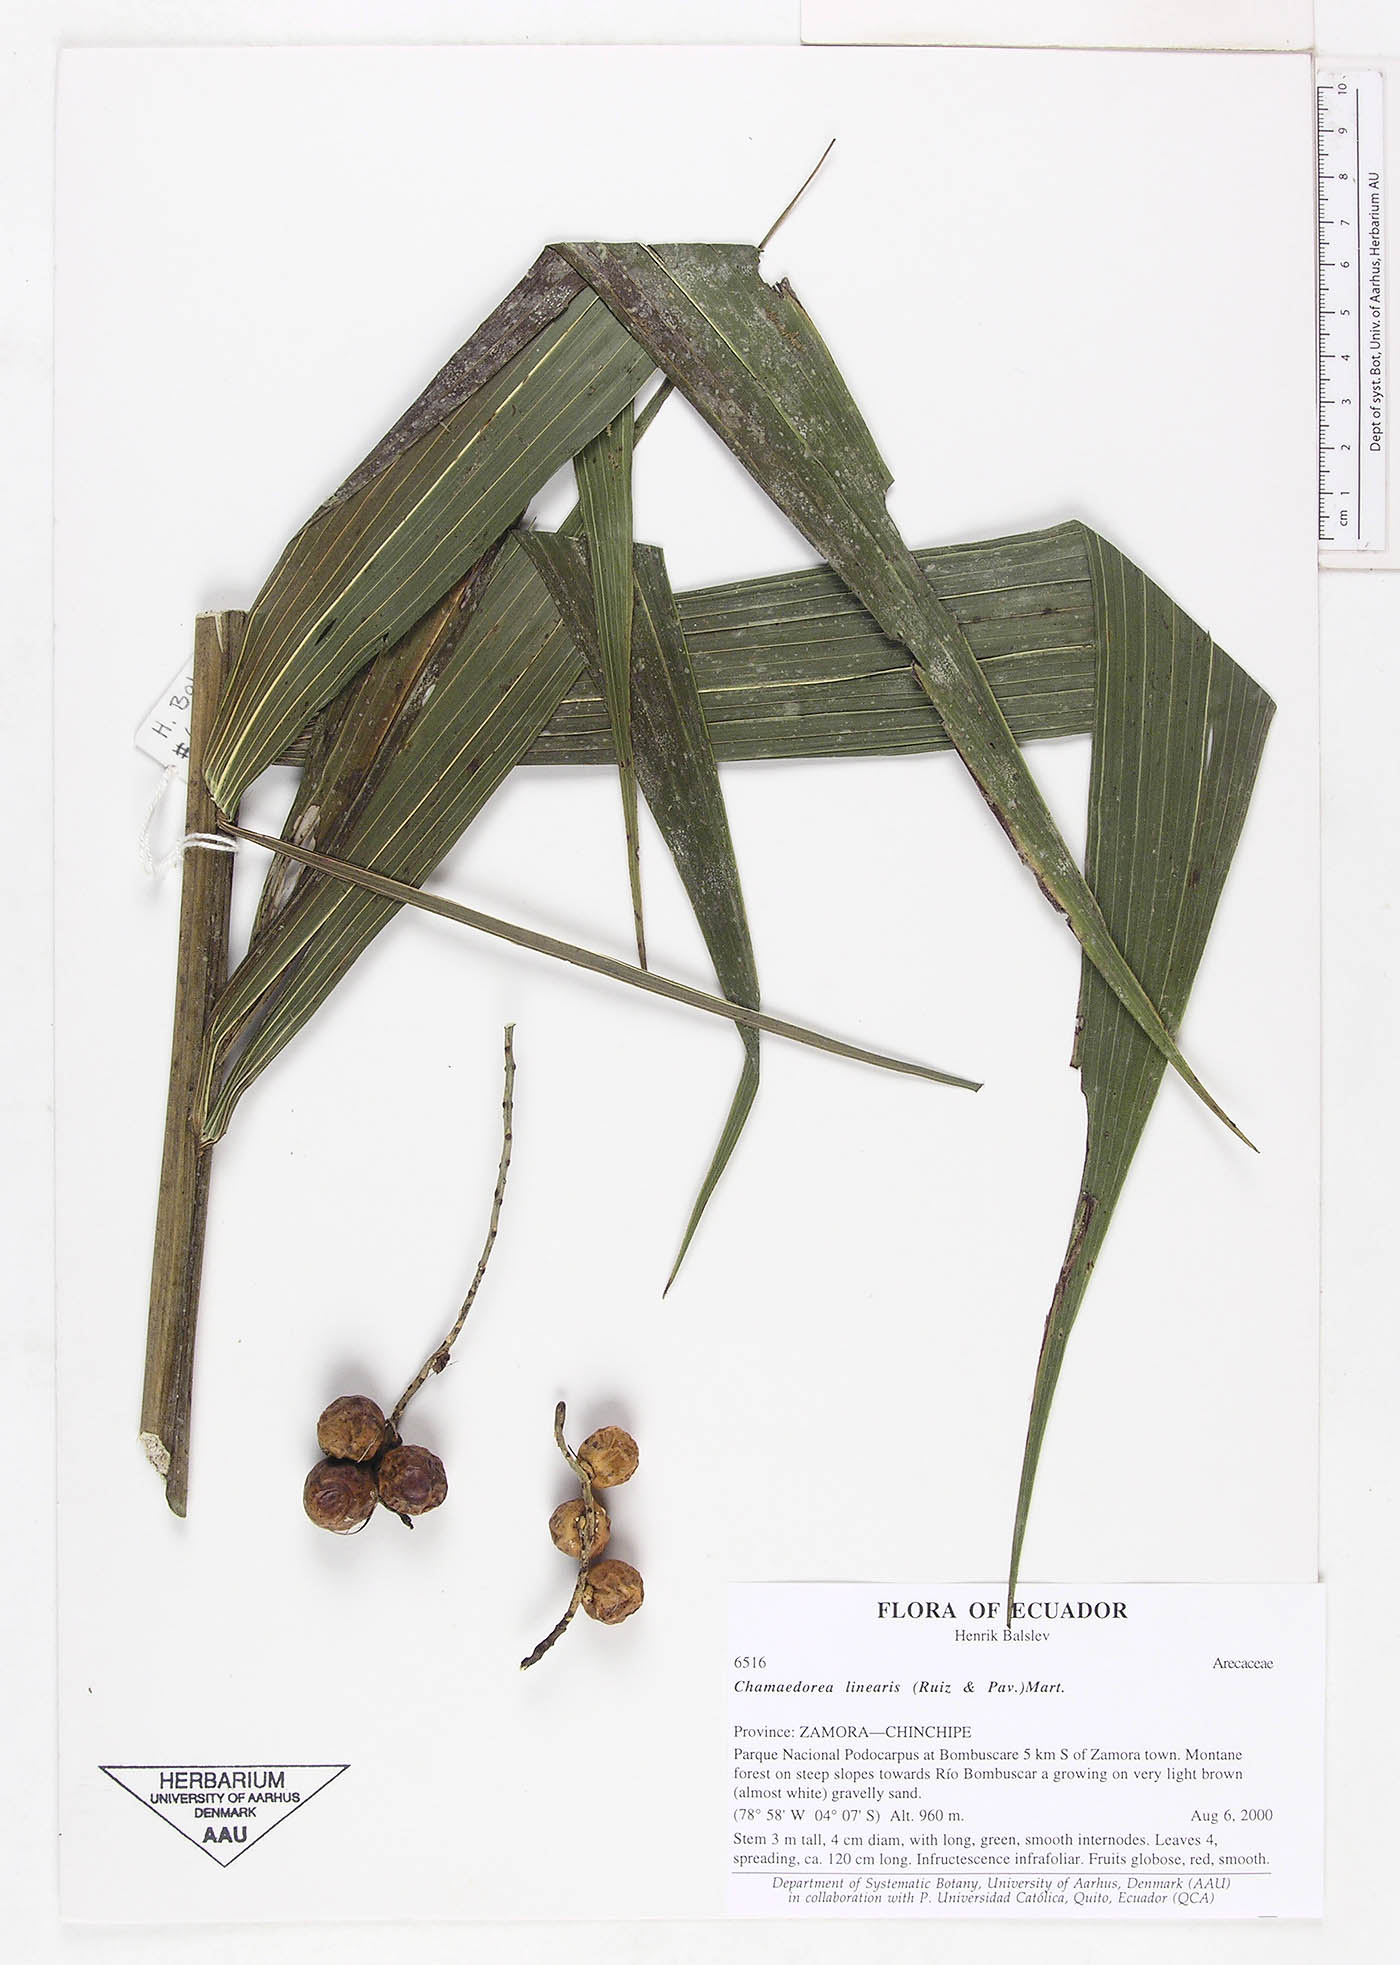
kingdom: Plantae
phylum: Tracheophyta
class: Liliopsida
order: Arecales
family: Arecaceae
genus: Chamaedorea
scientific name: Chamaedorea linearis
